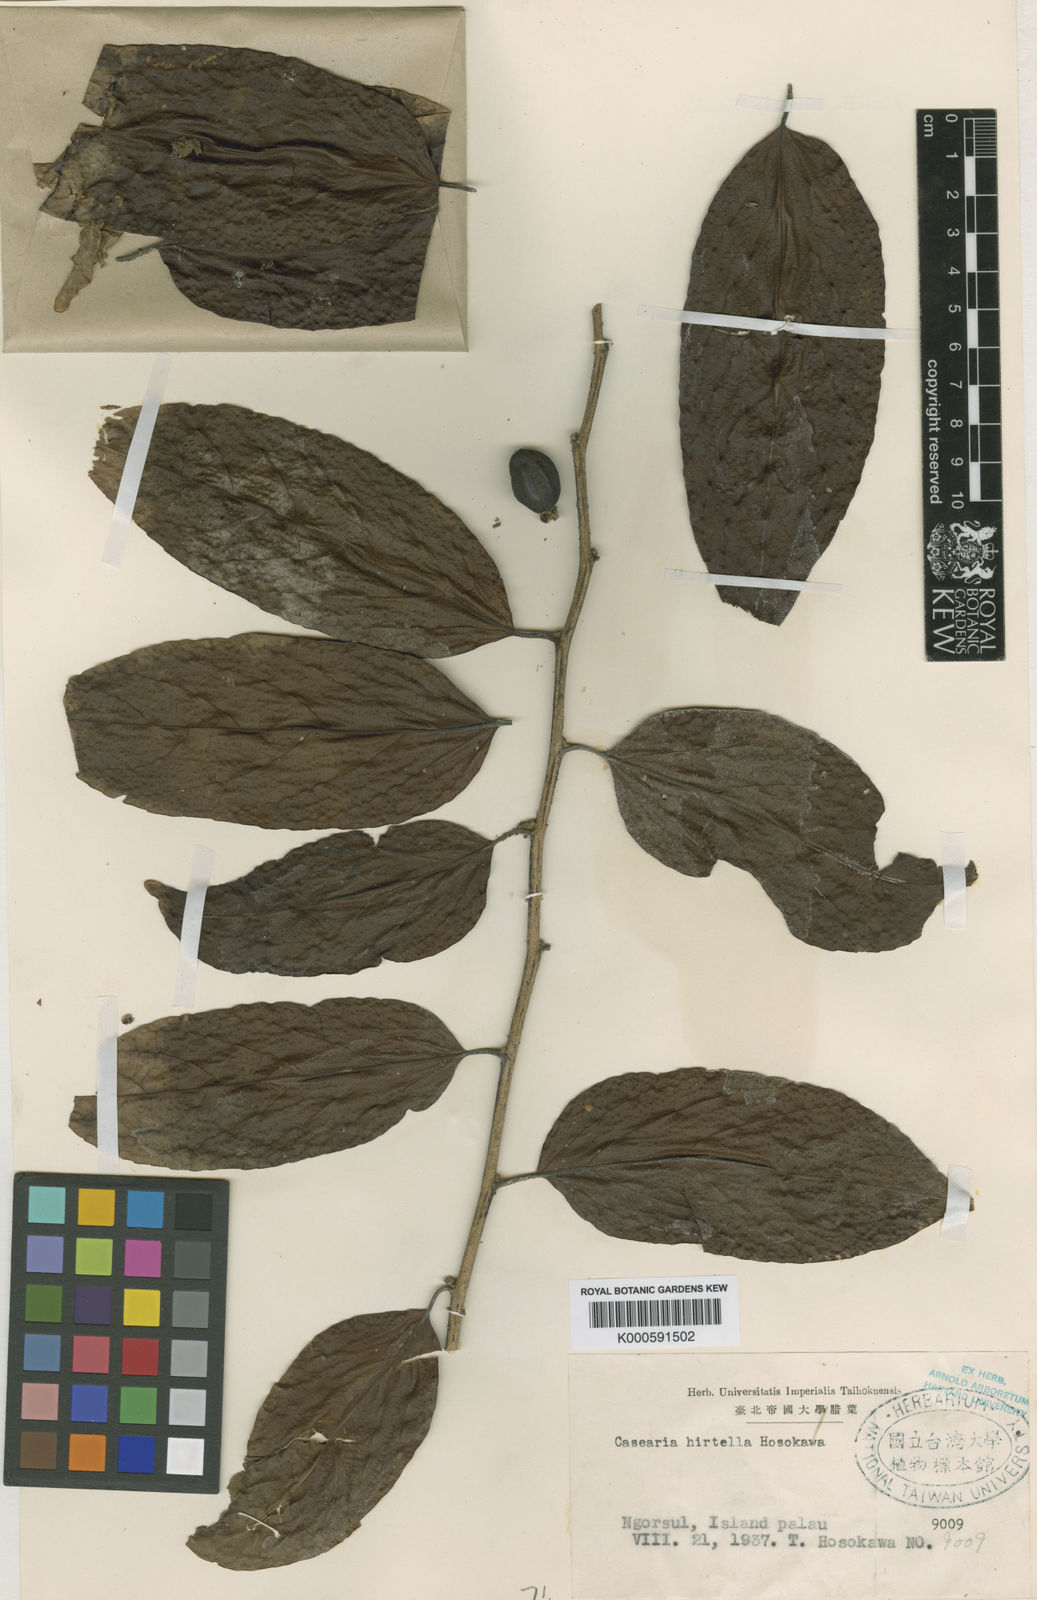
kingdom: Plantae
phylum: Tracheophyta
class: Magnoliopsida
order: Malpighiales
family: Salicaceae
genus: Casearia
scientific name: Casearia hirtella
